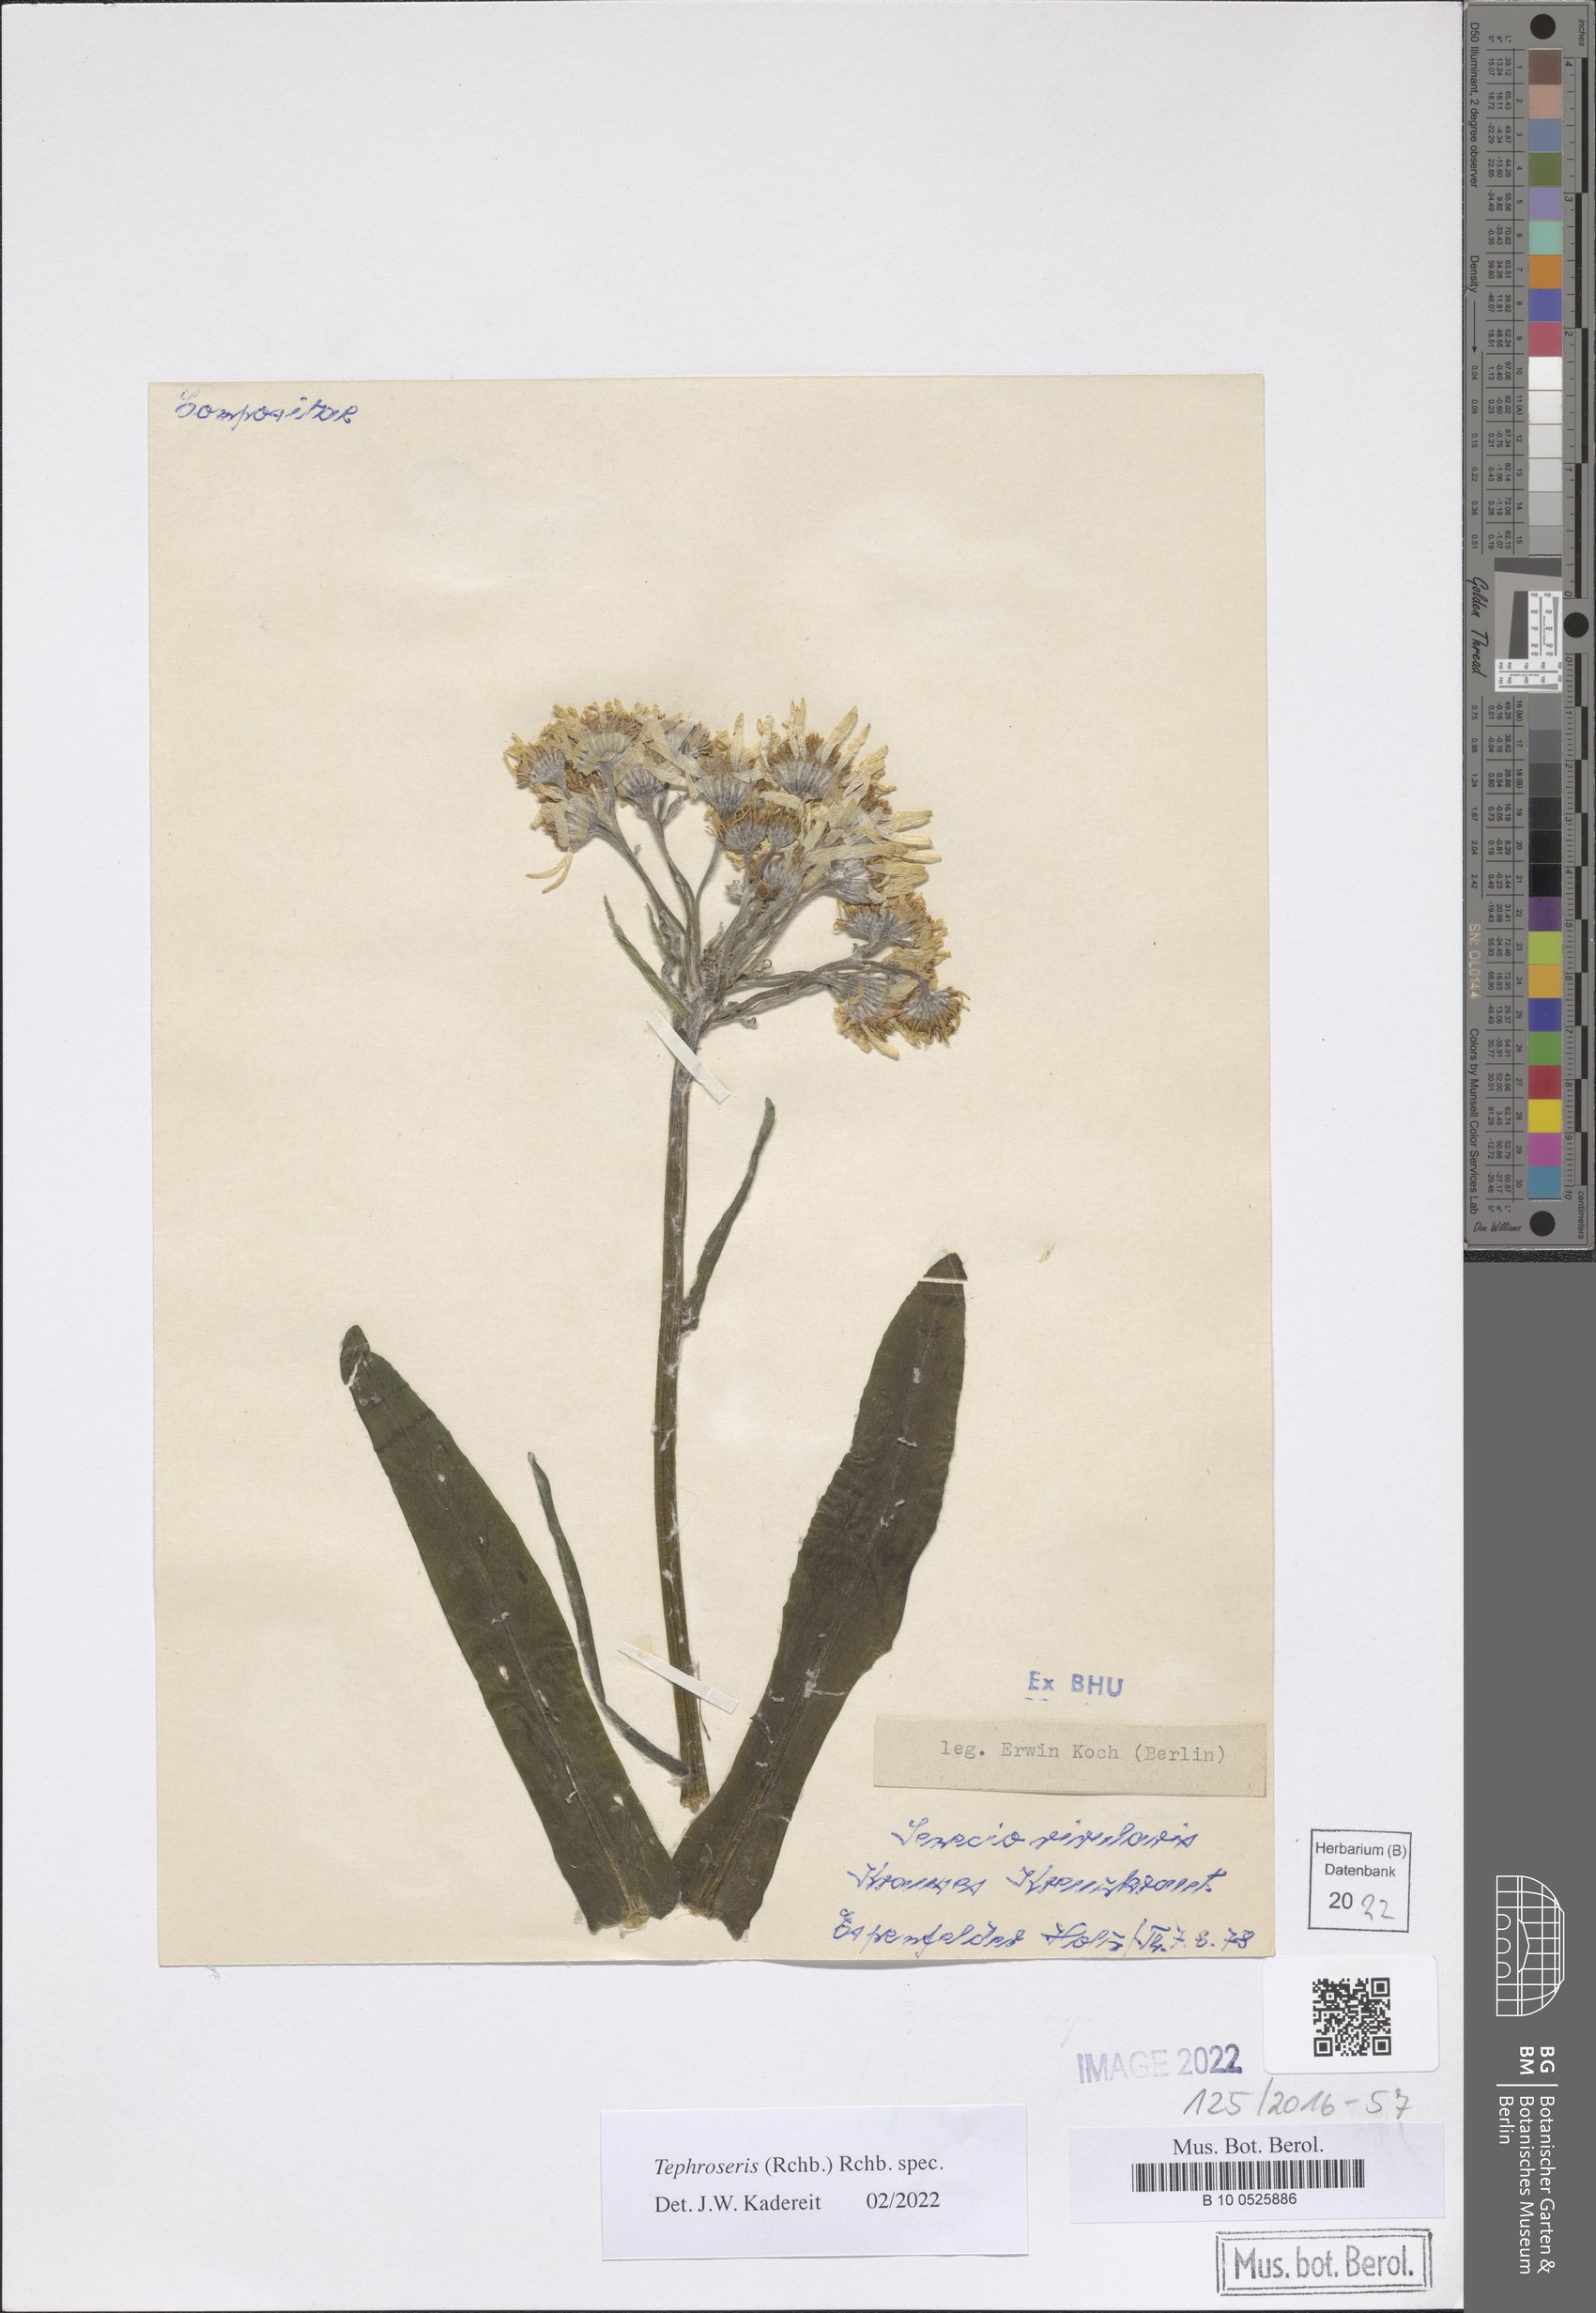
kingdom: Plantae
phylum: Tracheophyta
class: Magnoliopsida
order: Asterales
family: Asteraceae
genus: Tephroseris
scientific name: Tephroseris
